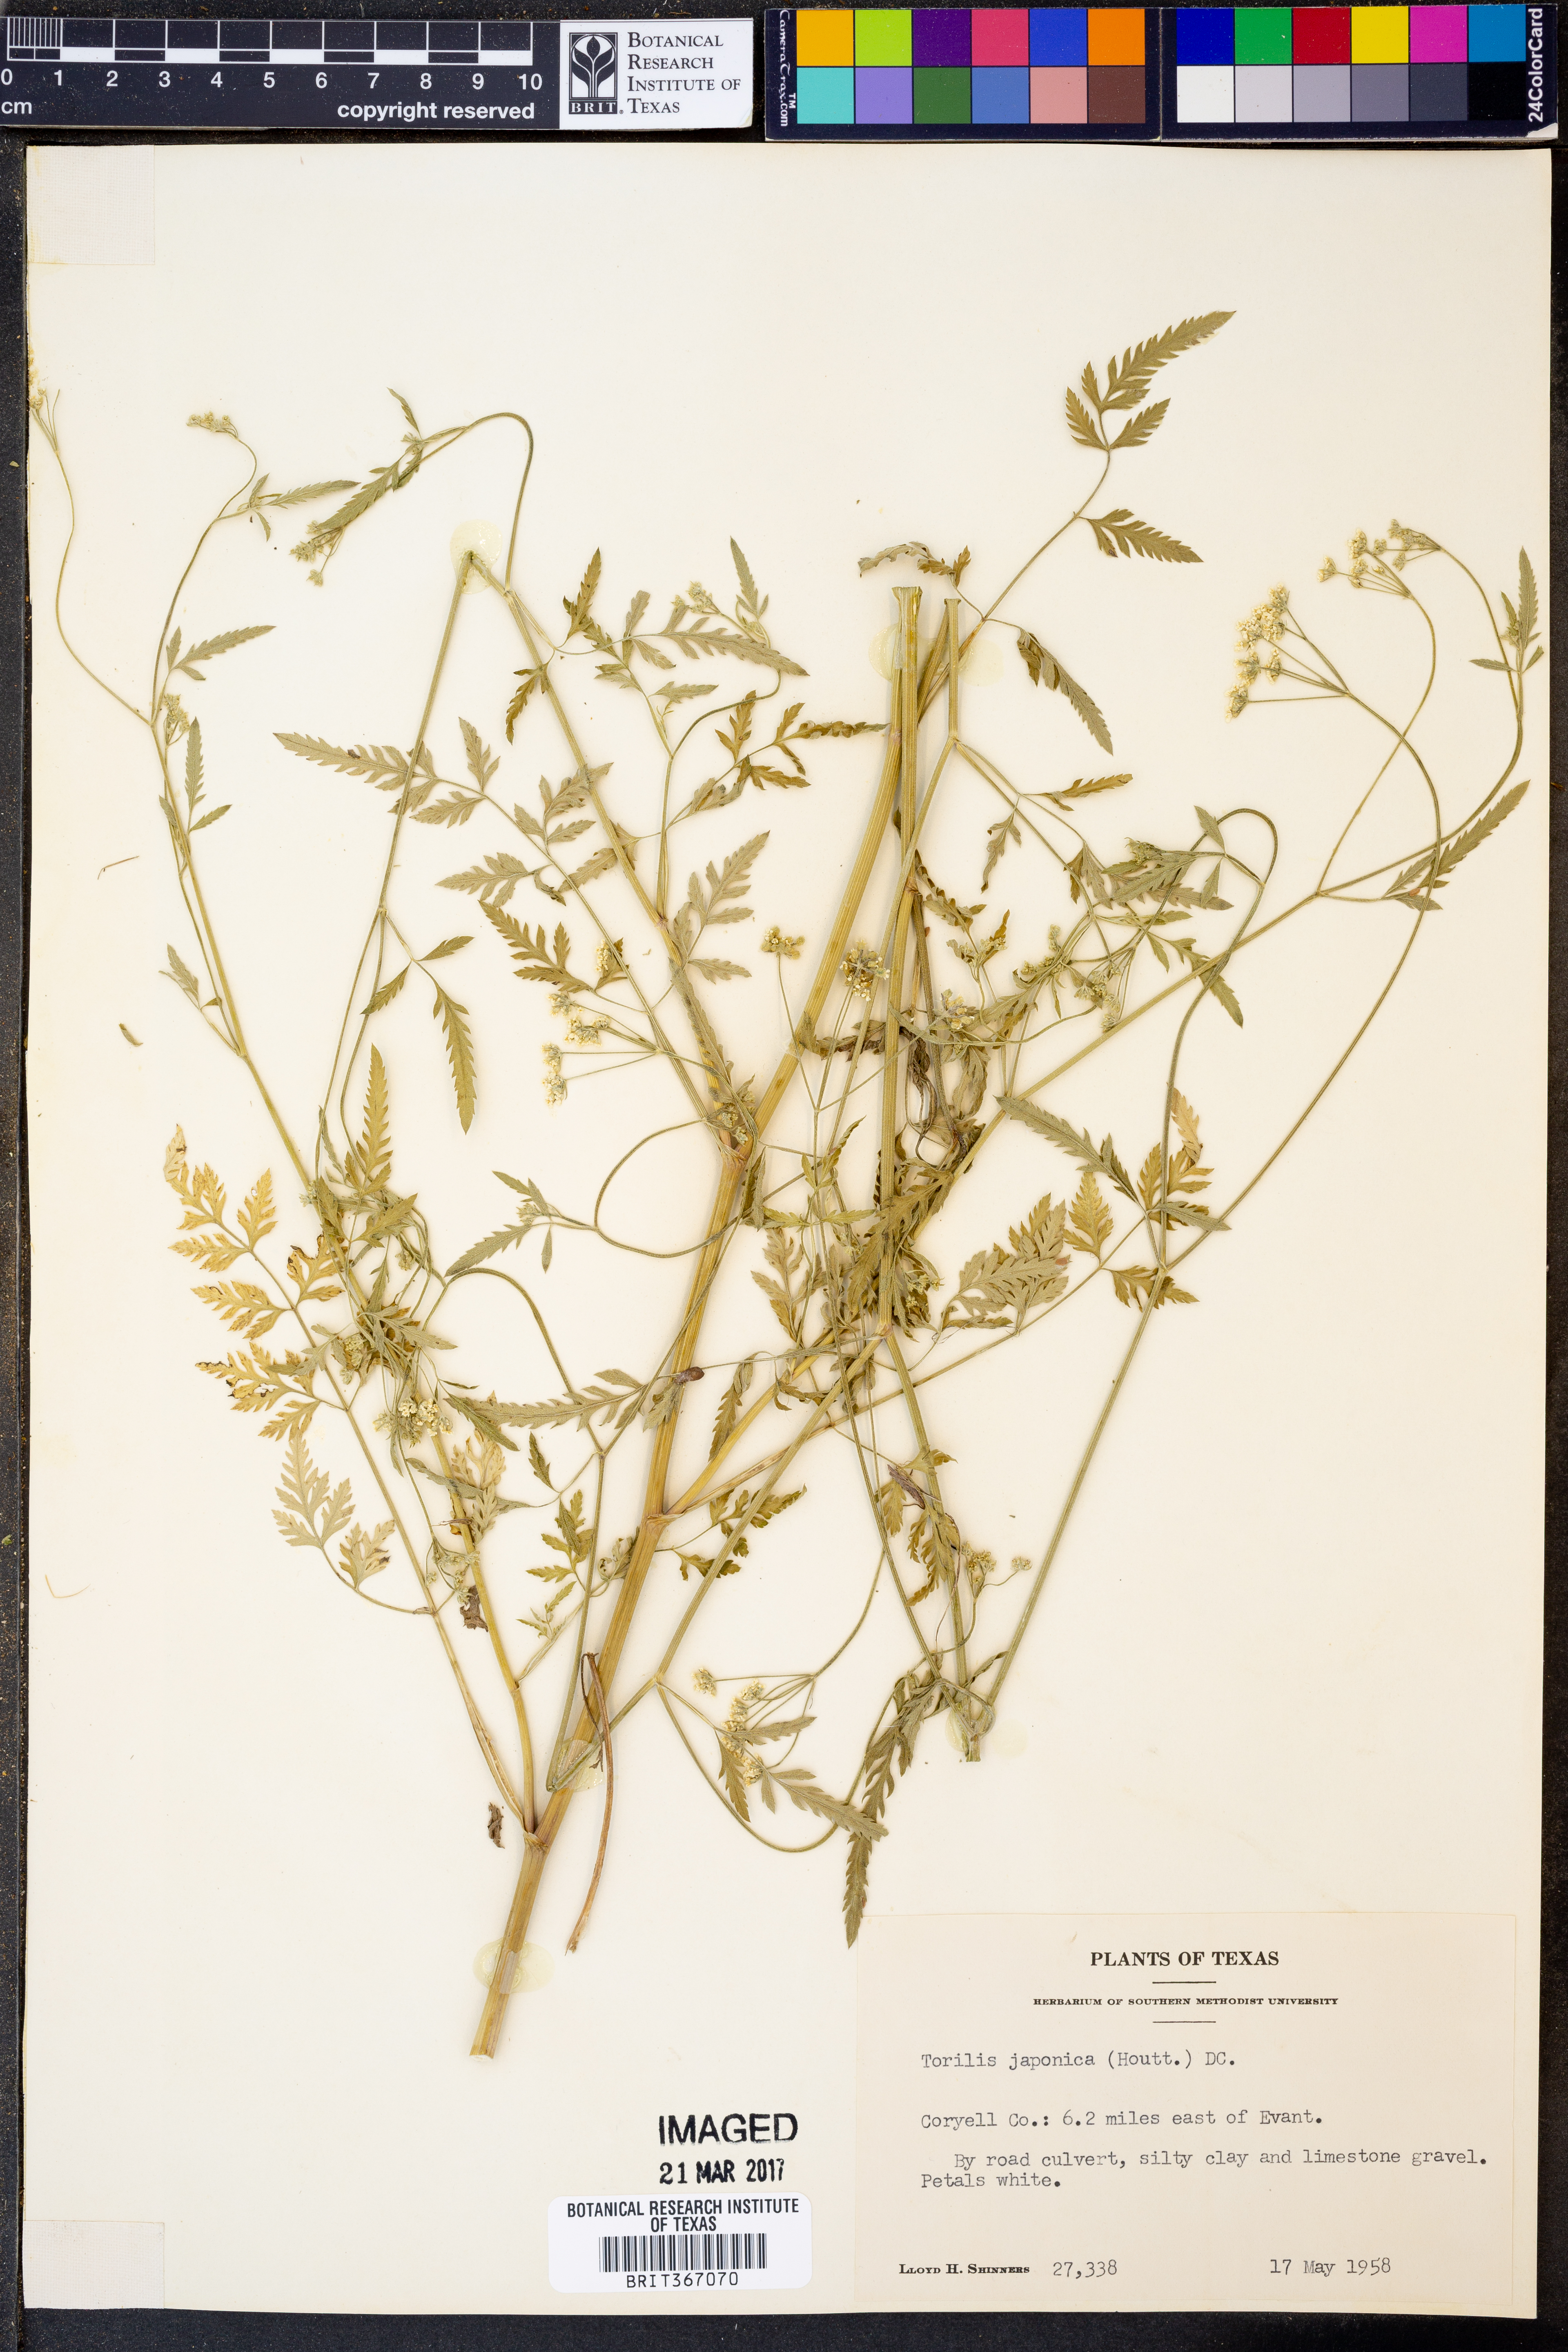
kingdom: Plantae
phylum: Tracheophyta
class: Magnoliopsida
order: Apiales
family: Apiaceae
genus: Torilis
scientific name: Torilis japonica
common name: Upright hedge-parsley
